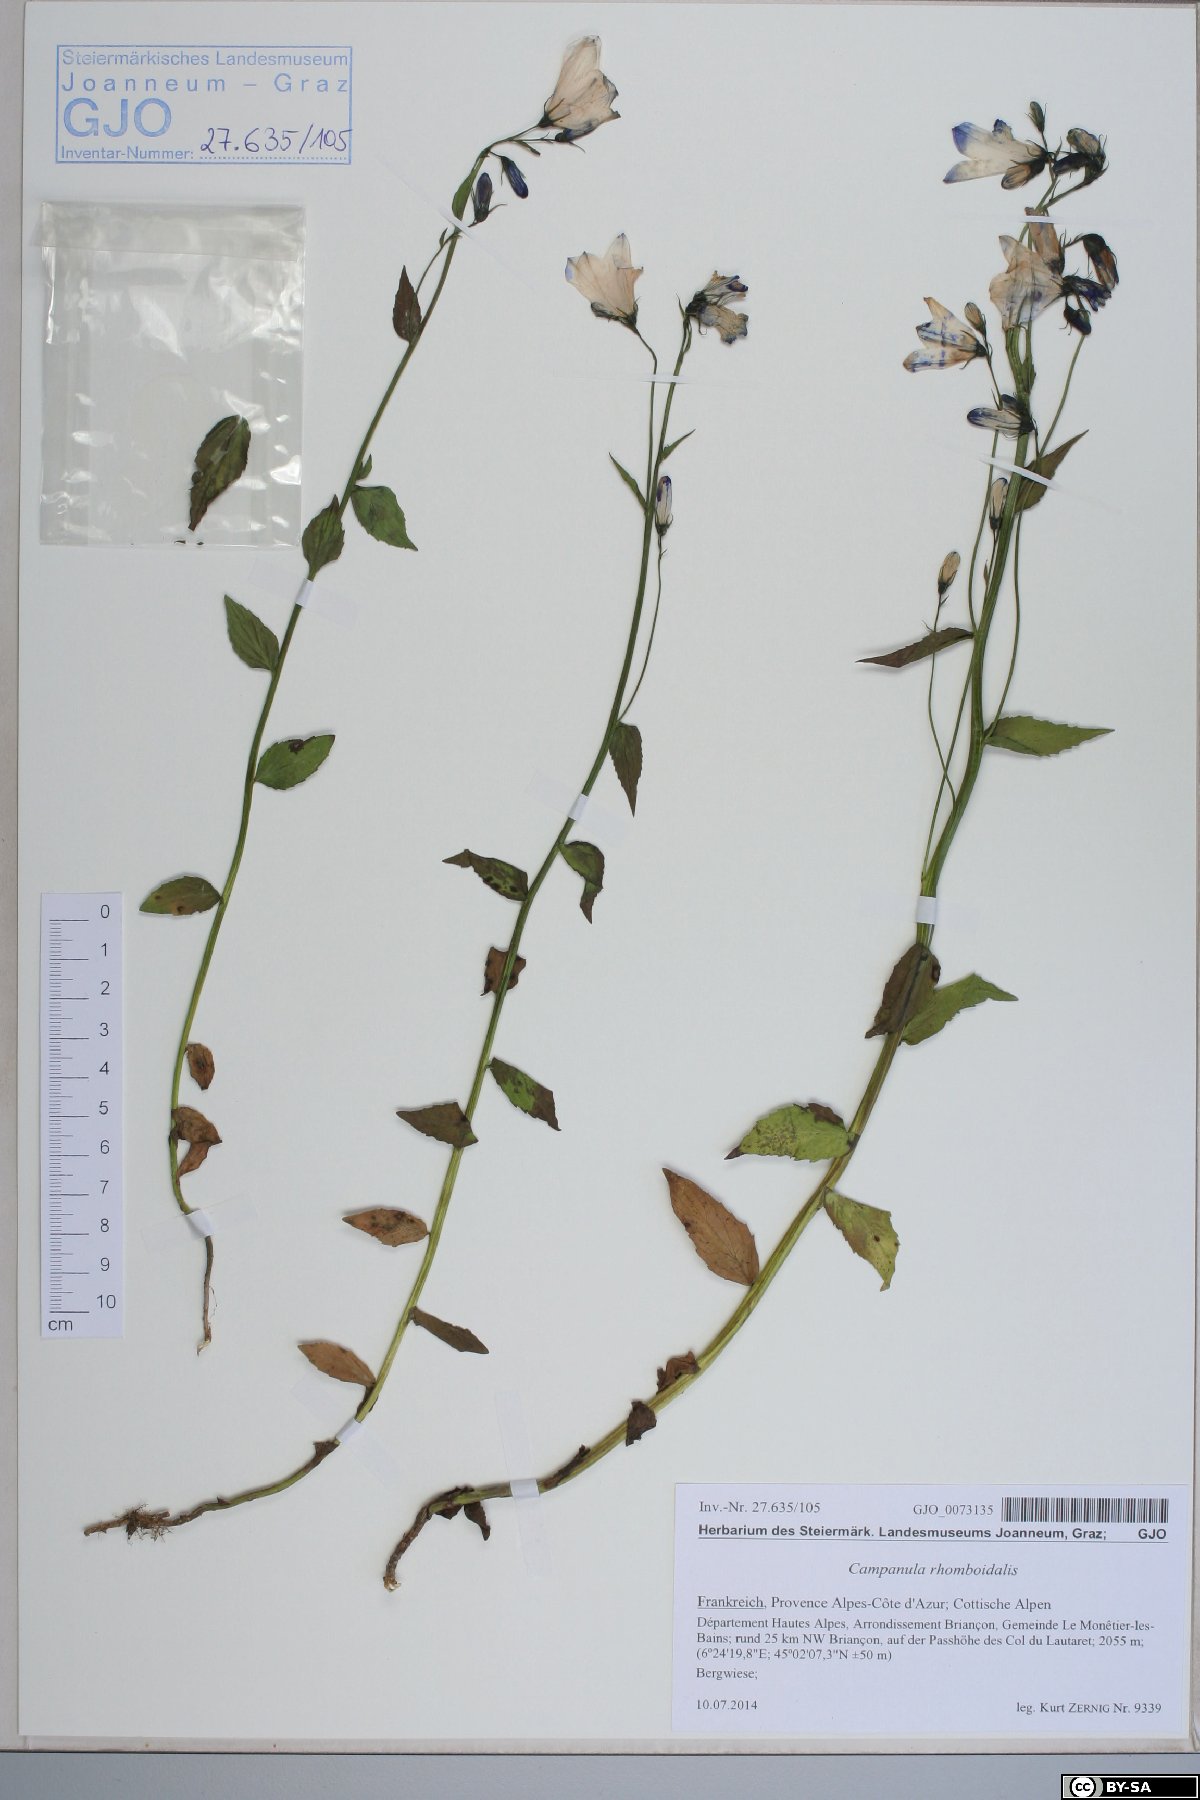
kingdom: Plantae
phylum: Tracheophyta
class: Magnoliopsida
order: Asterales
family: Campanulaceae
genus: Campanula
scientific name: Campanula rhomboidalis
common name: Broad-leaved harebell
